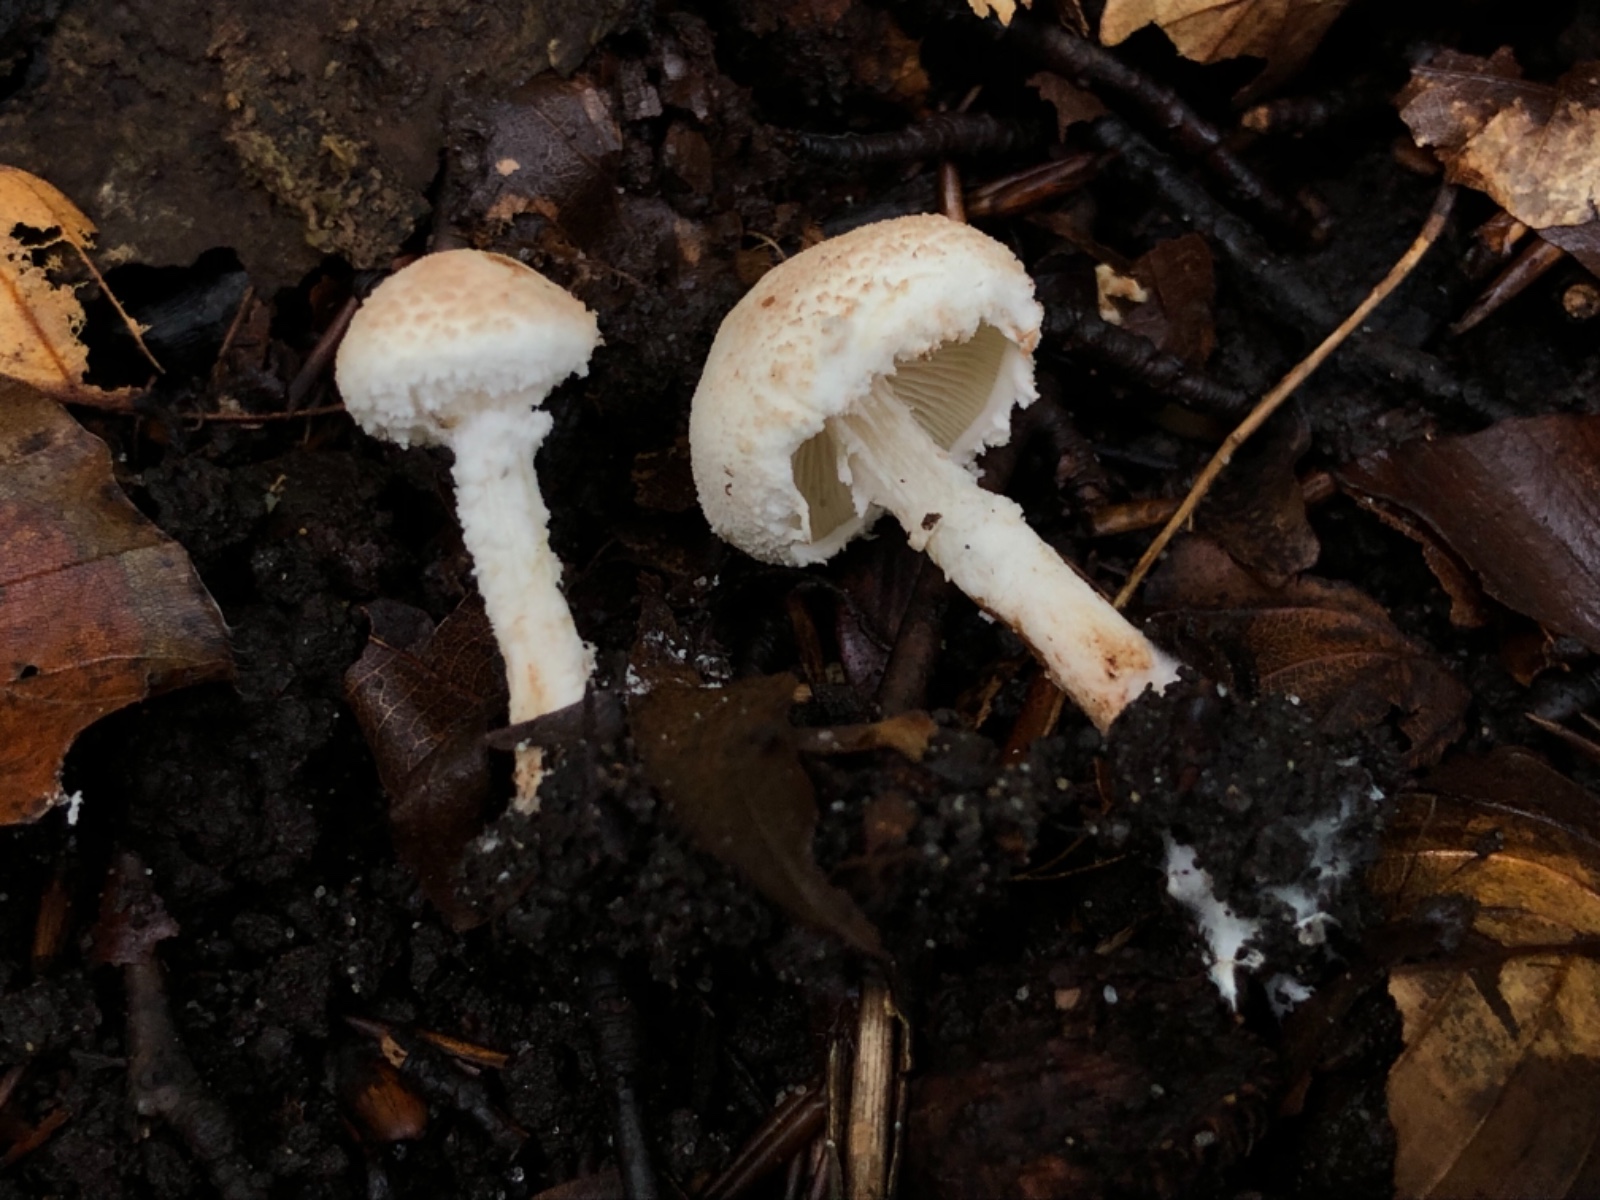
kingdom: Fungi
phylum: Basidiomycota
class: Agaricomycetes
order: Agaricales
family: Agaricaceae
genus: Cystolepiota
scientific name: Cystolepiota hetieri
